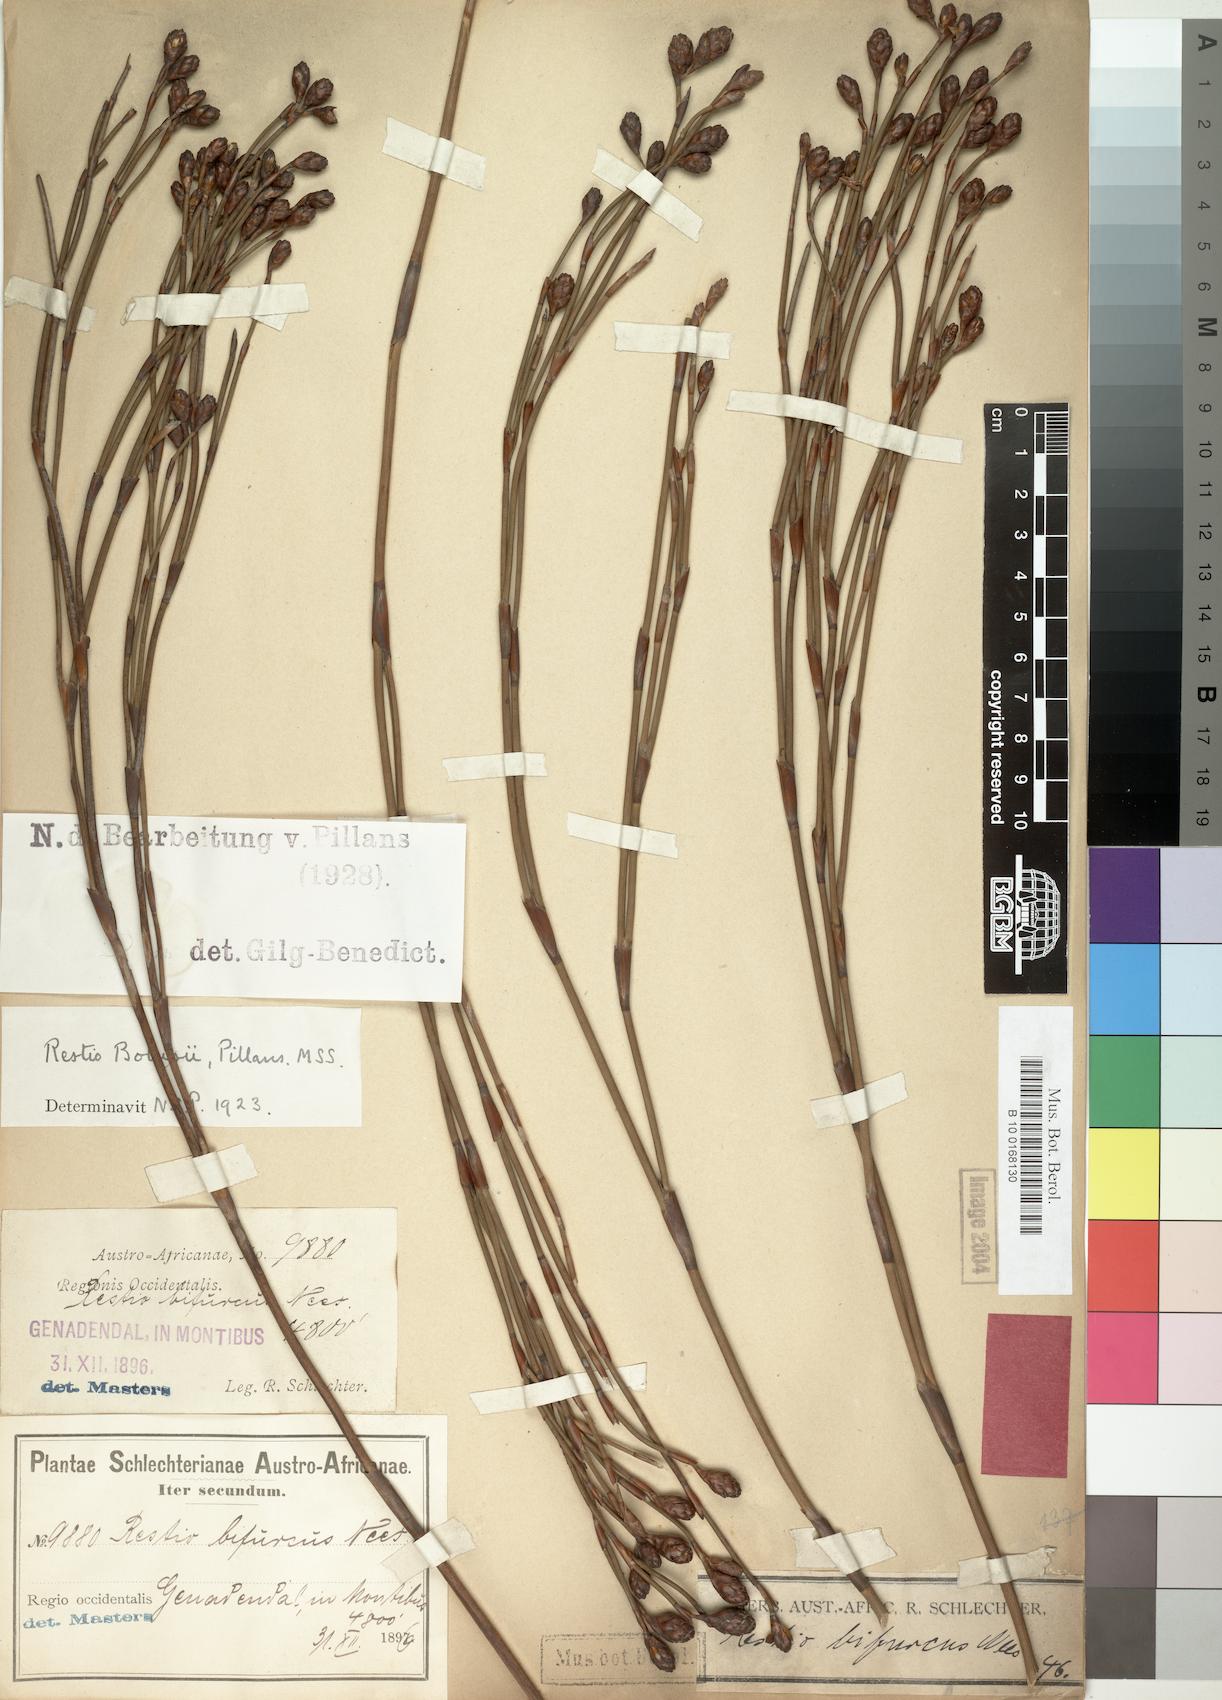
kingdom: Plantae
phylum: Tracheophyta
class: Liliopsida
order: Poales
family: Restionaceae
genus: Restio
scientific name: Restio bolusii
